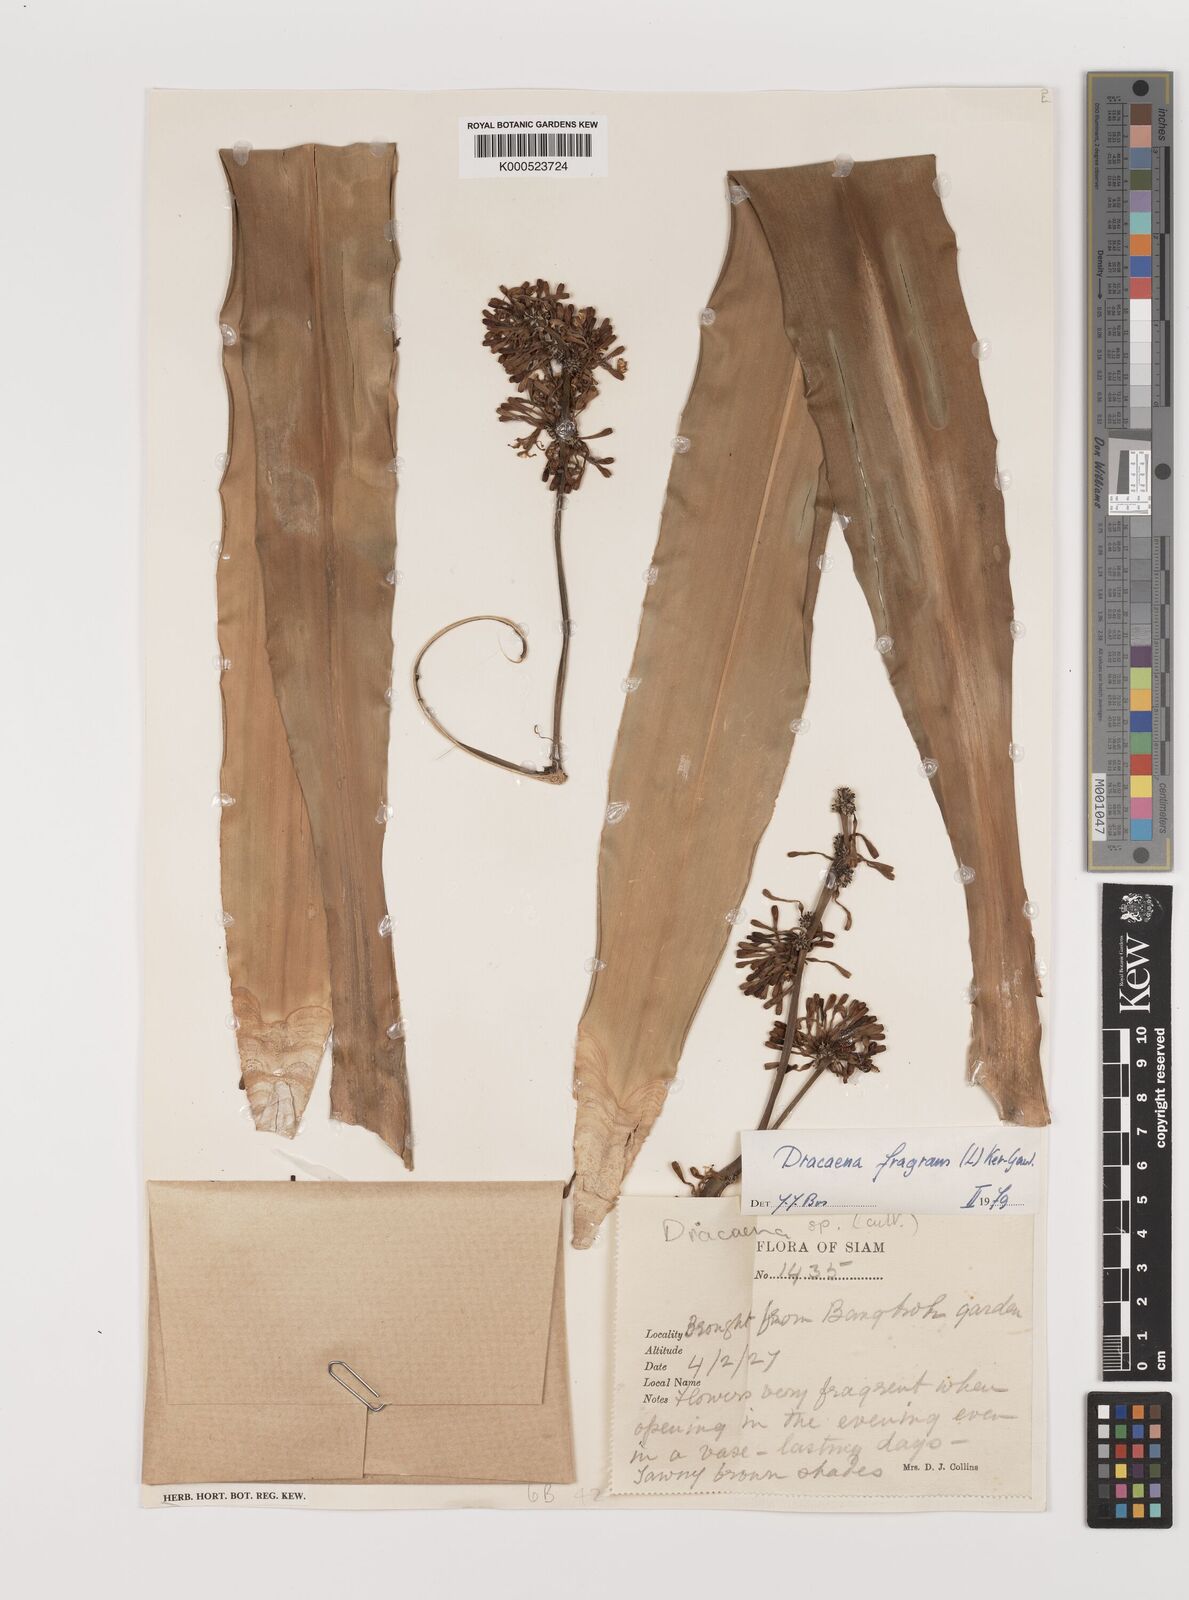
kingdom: Plantae
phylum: Tracheophyta
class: Liliopsida
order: Asparagales
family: Asparagaceae
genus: Dracaena
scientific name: Dracaena fragrans
